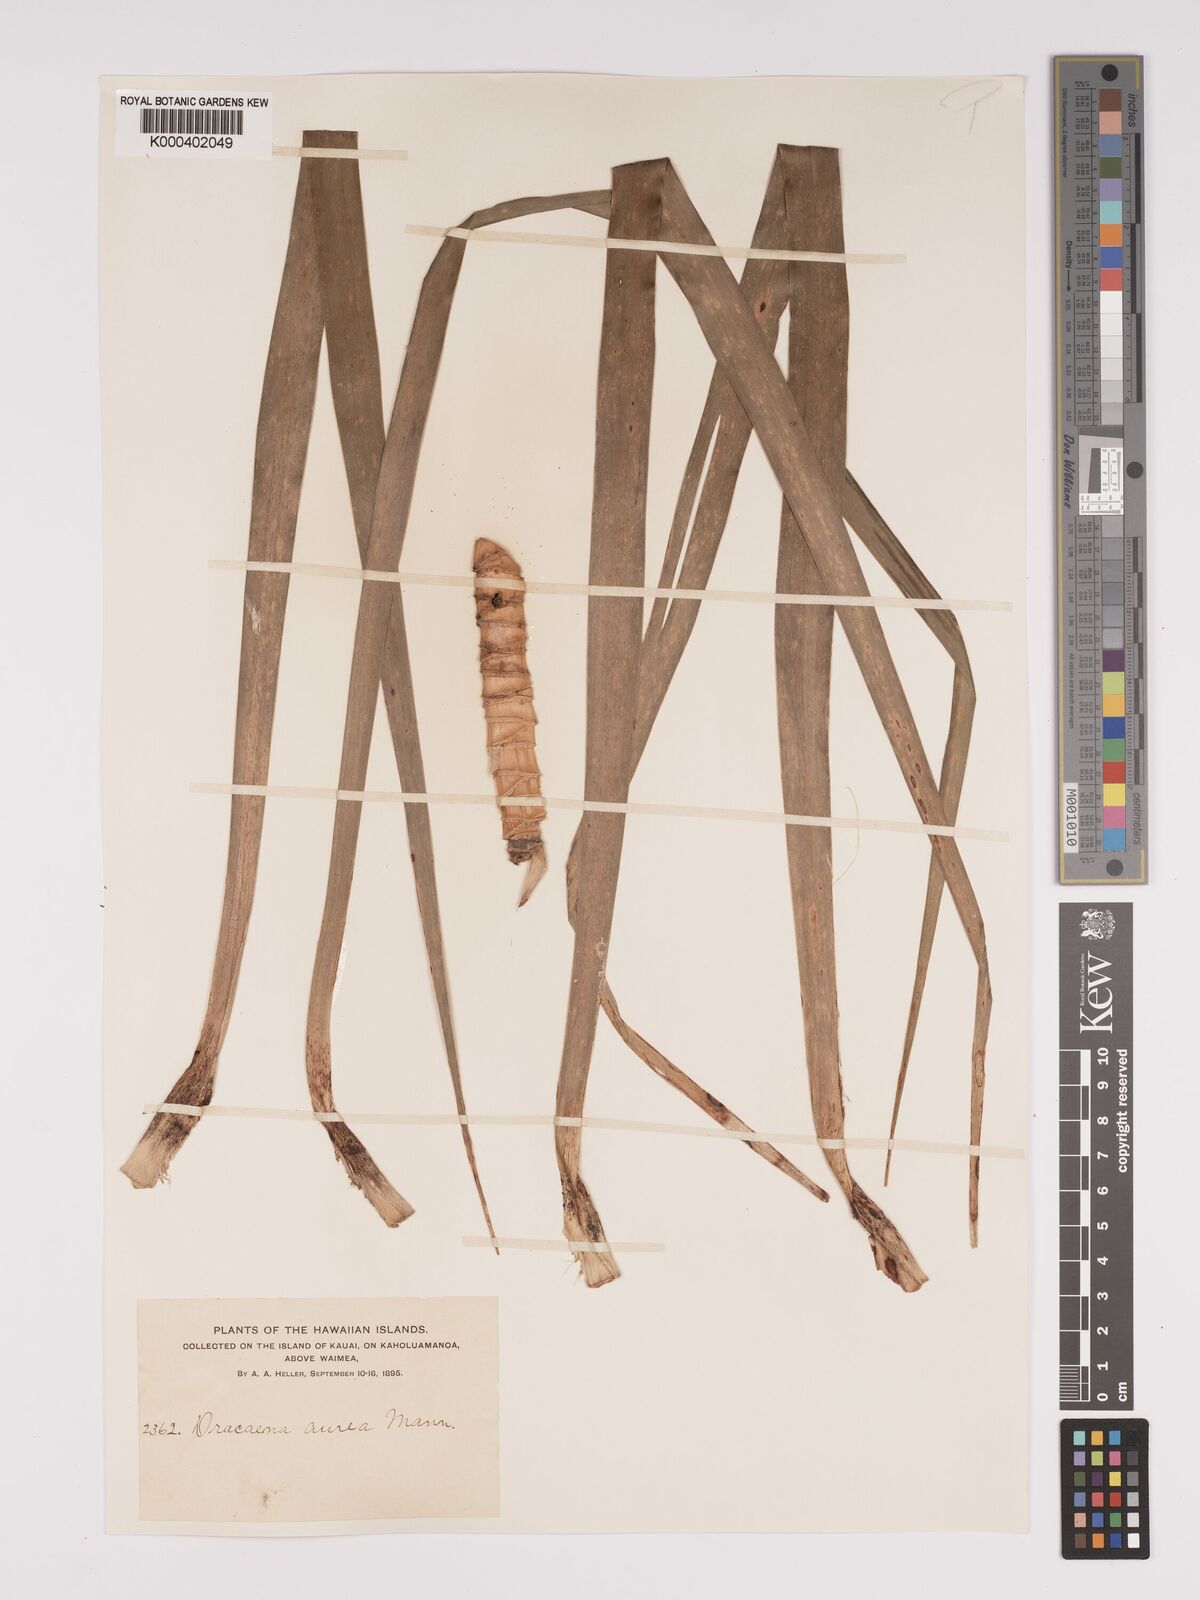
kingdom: Plantae
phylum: Tracheophyta
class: Liliopsida
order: Asparagales
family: Asparagaceae
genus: Dracaena
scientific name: Dracaena aurea
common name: Golden dracaena
